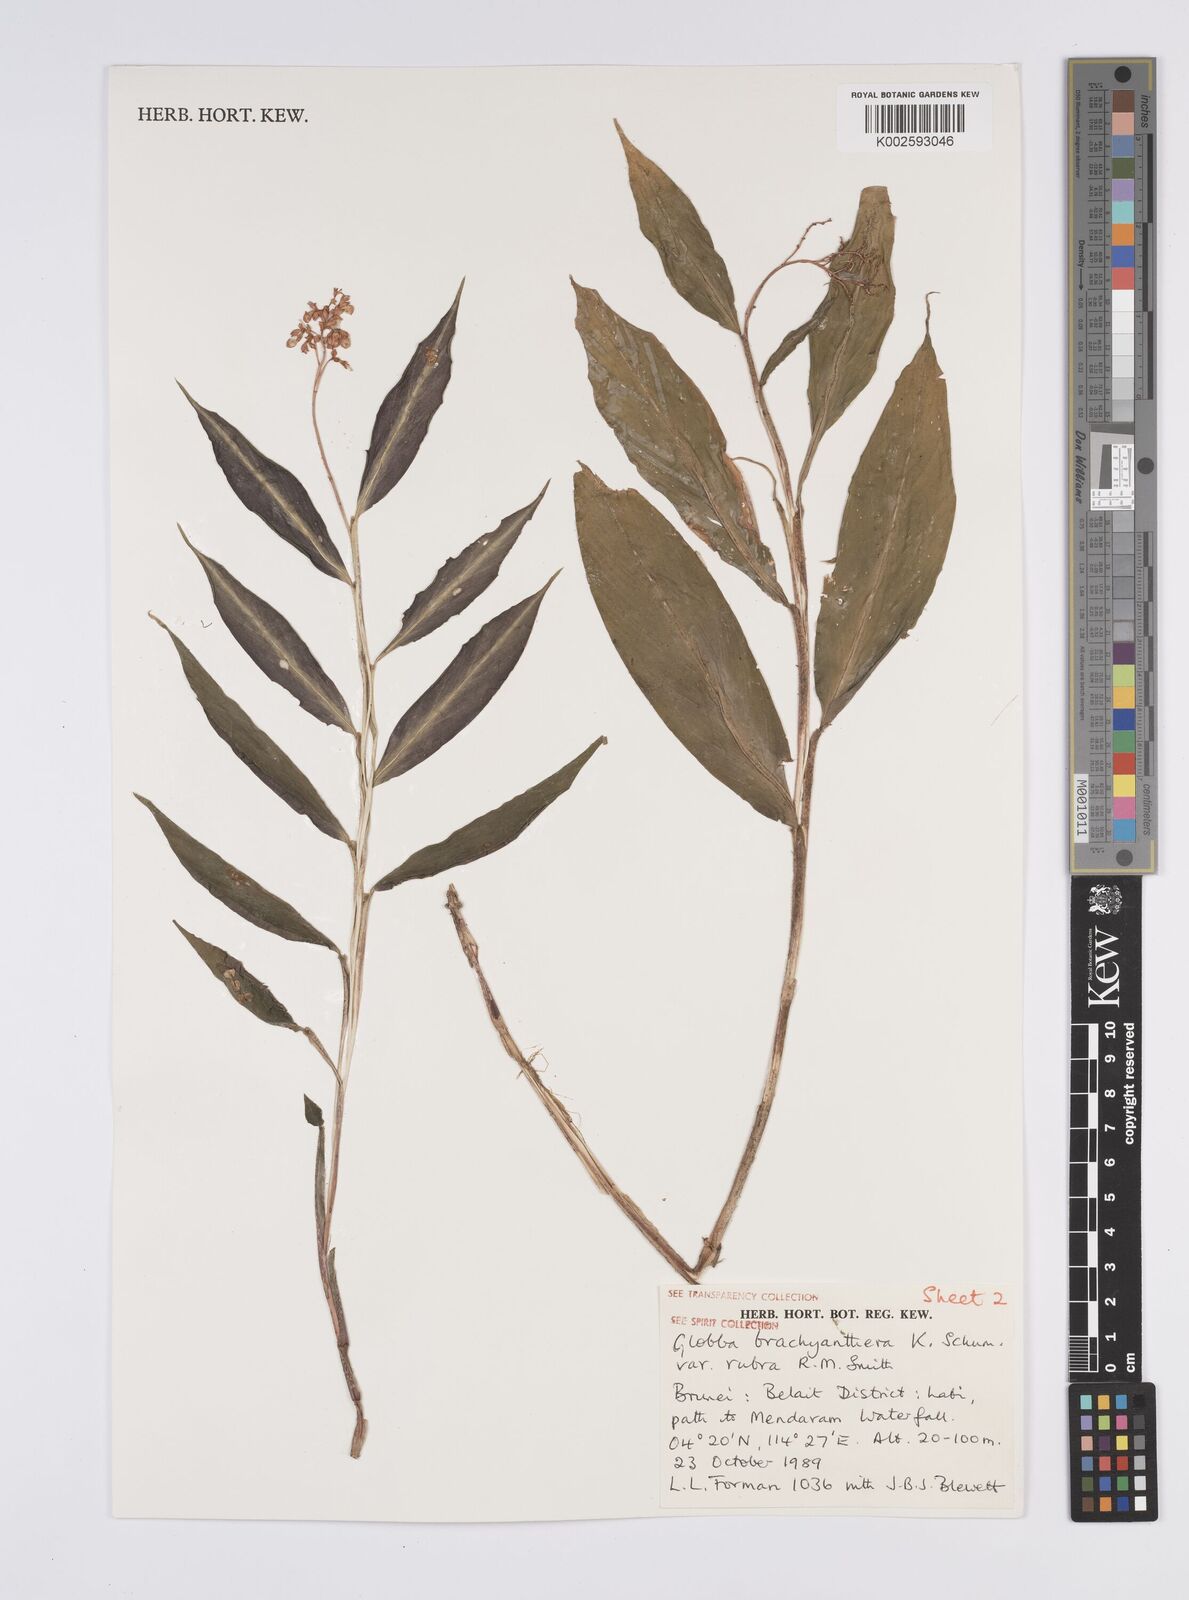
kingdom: Plantae
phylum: Tracheophyta
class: Liliopsida
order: Zingiberales
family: Zingiberaceae
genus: Globba
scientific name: Globba brachyanthera
